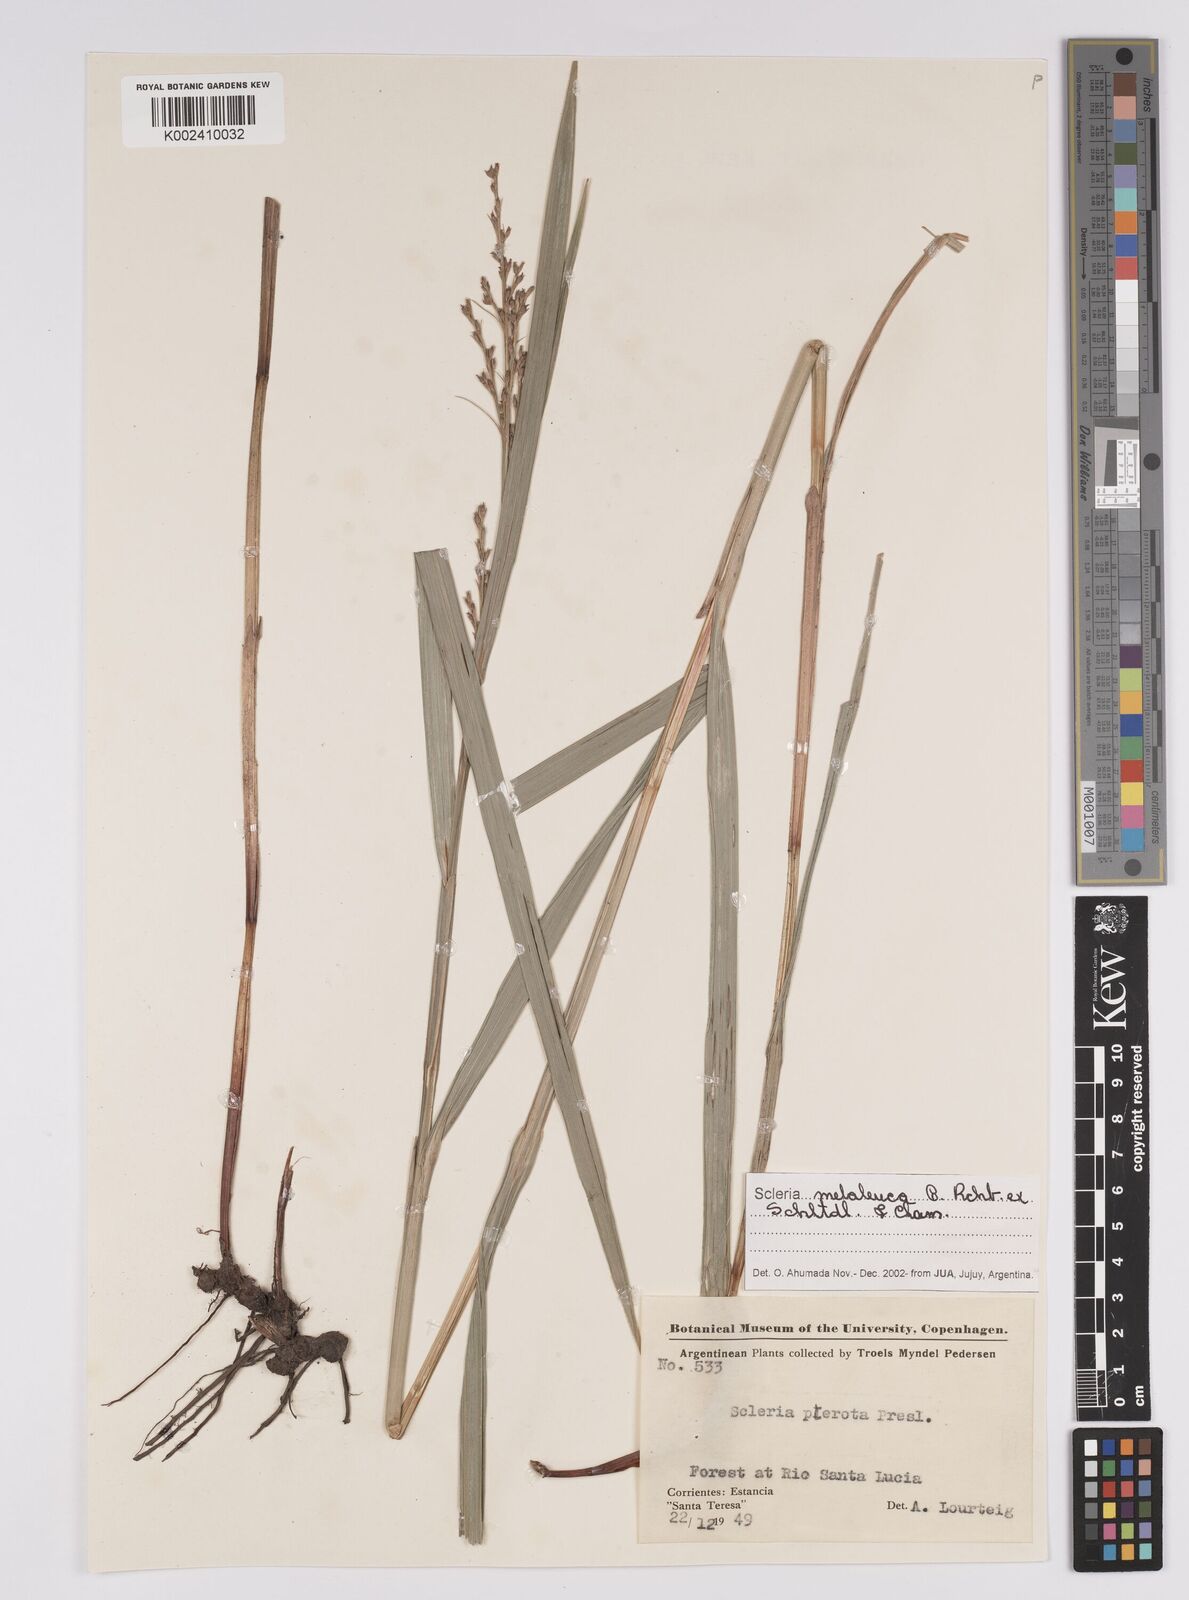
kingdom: Plantae
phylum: Tracheophyta
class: Liliopsida
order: Poales
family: Cyperaceae
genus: Scleria
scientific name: Scleria gaertneri
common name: Cortadera blanca
